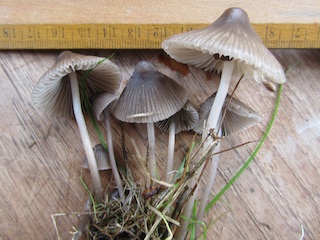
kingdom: Fungi
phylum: Basidiomycota
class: Agaricomycetes
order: Agaricales
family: Mycenaceae
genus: Mycena
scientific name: Mycena polygramma
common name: mangestribet huesvamp
